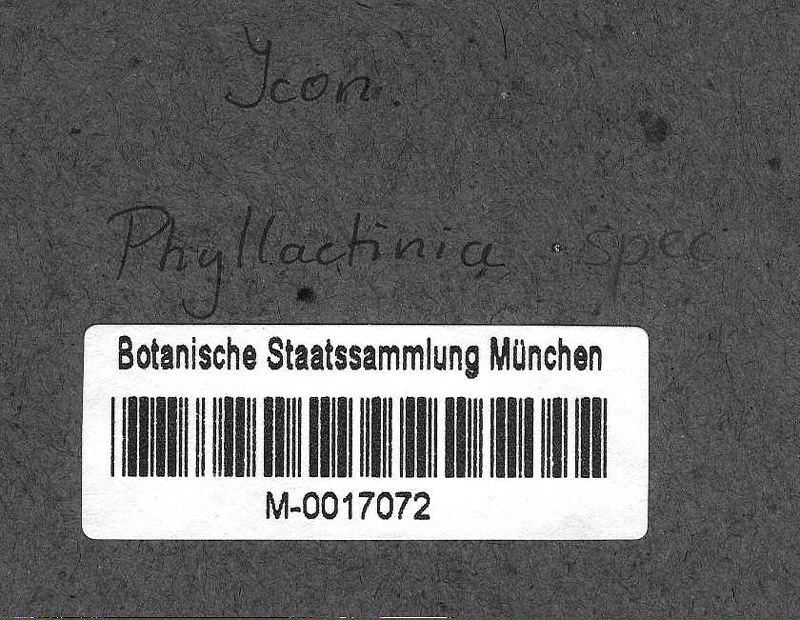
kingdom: Fungi
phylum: Ascomycota
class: Leotiomycetes
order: Helotiales
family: Erysiphaceae
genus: Phyllactinia
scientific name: Phyllactinia guttata
